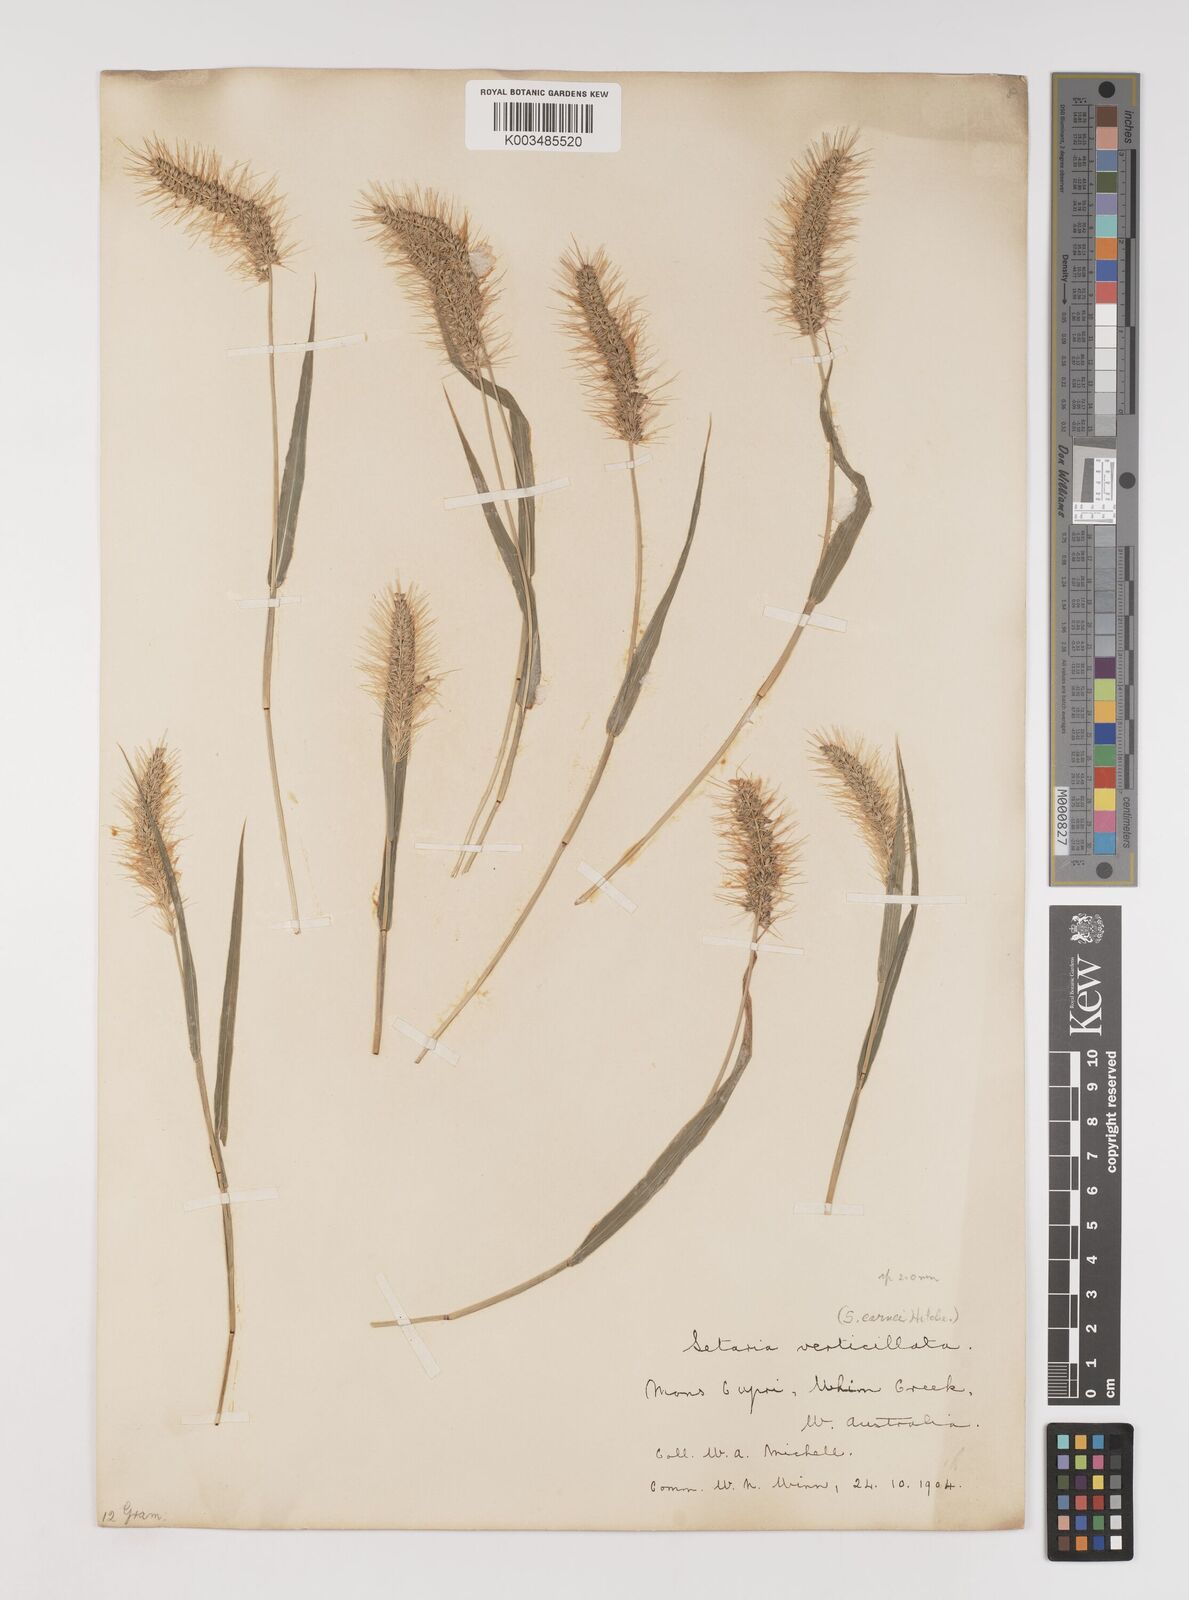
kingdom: Plantae
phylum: Tracheophyta
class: Liliopsida
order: Poales
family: Poaceae
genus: Setaria
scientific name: Setaria verticillata
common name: Hooked bristlegrass
